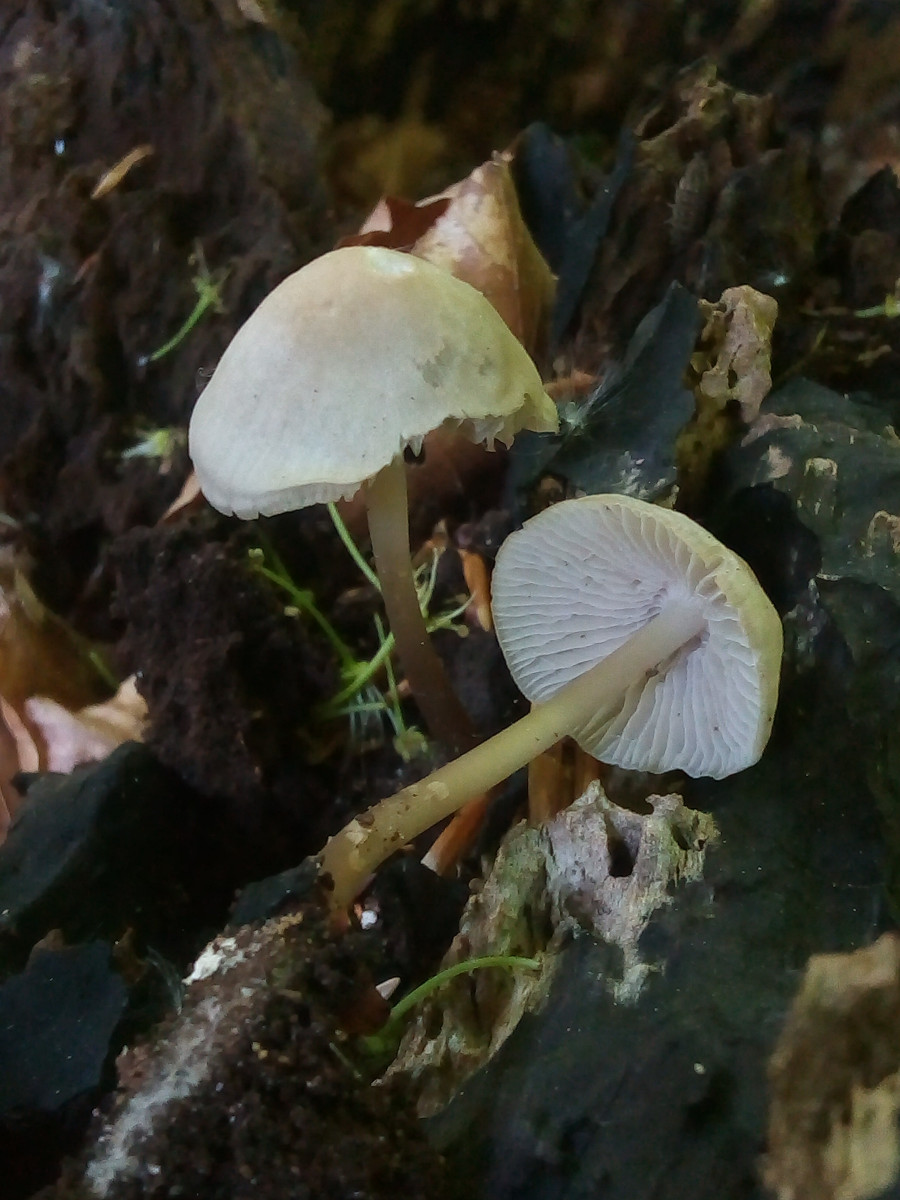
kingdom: Fungi
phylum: Basidiomycota
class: Agaricomycetes
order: Agaricales
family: Mycenaceae
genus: Mycena
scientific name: Mycena galericulata
